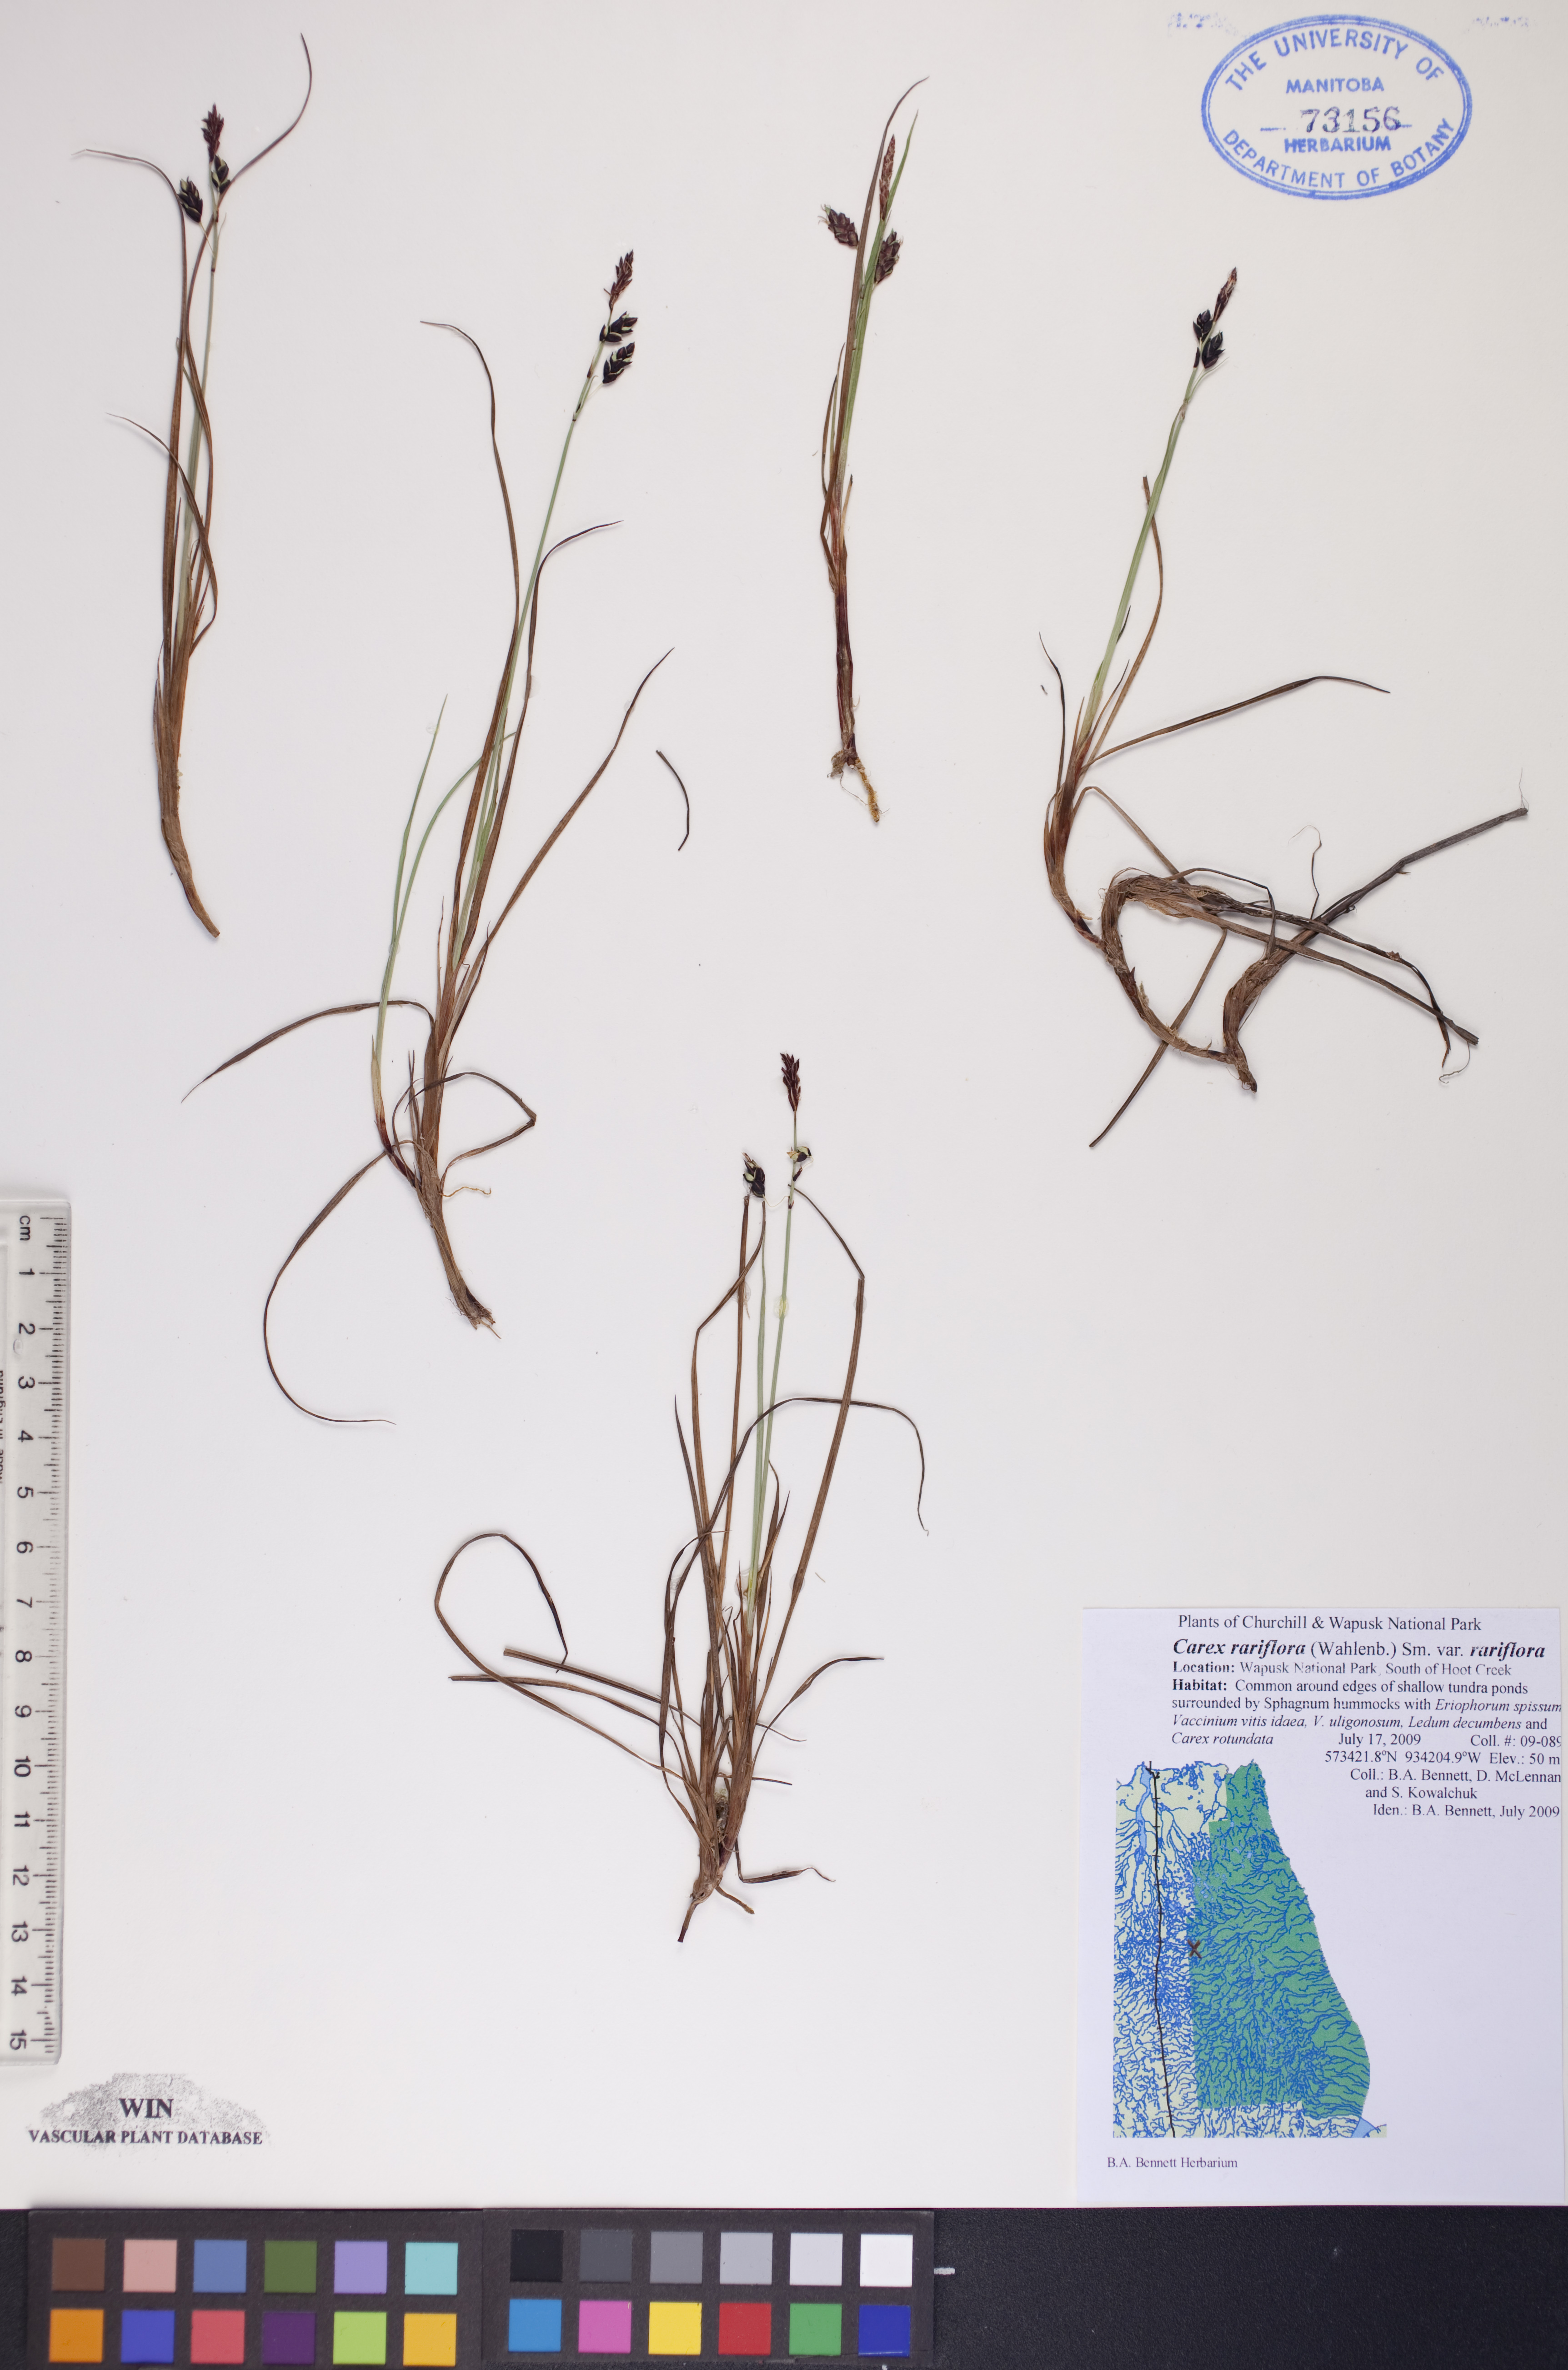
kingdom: Plantae
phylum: Tracheophyta
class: Liliopsida
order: Poales
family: Cyperaceae
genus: Carex
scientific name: Carex rariflora
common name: Loose-flowered alpine sedge
